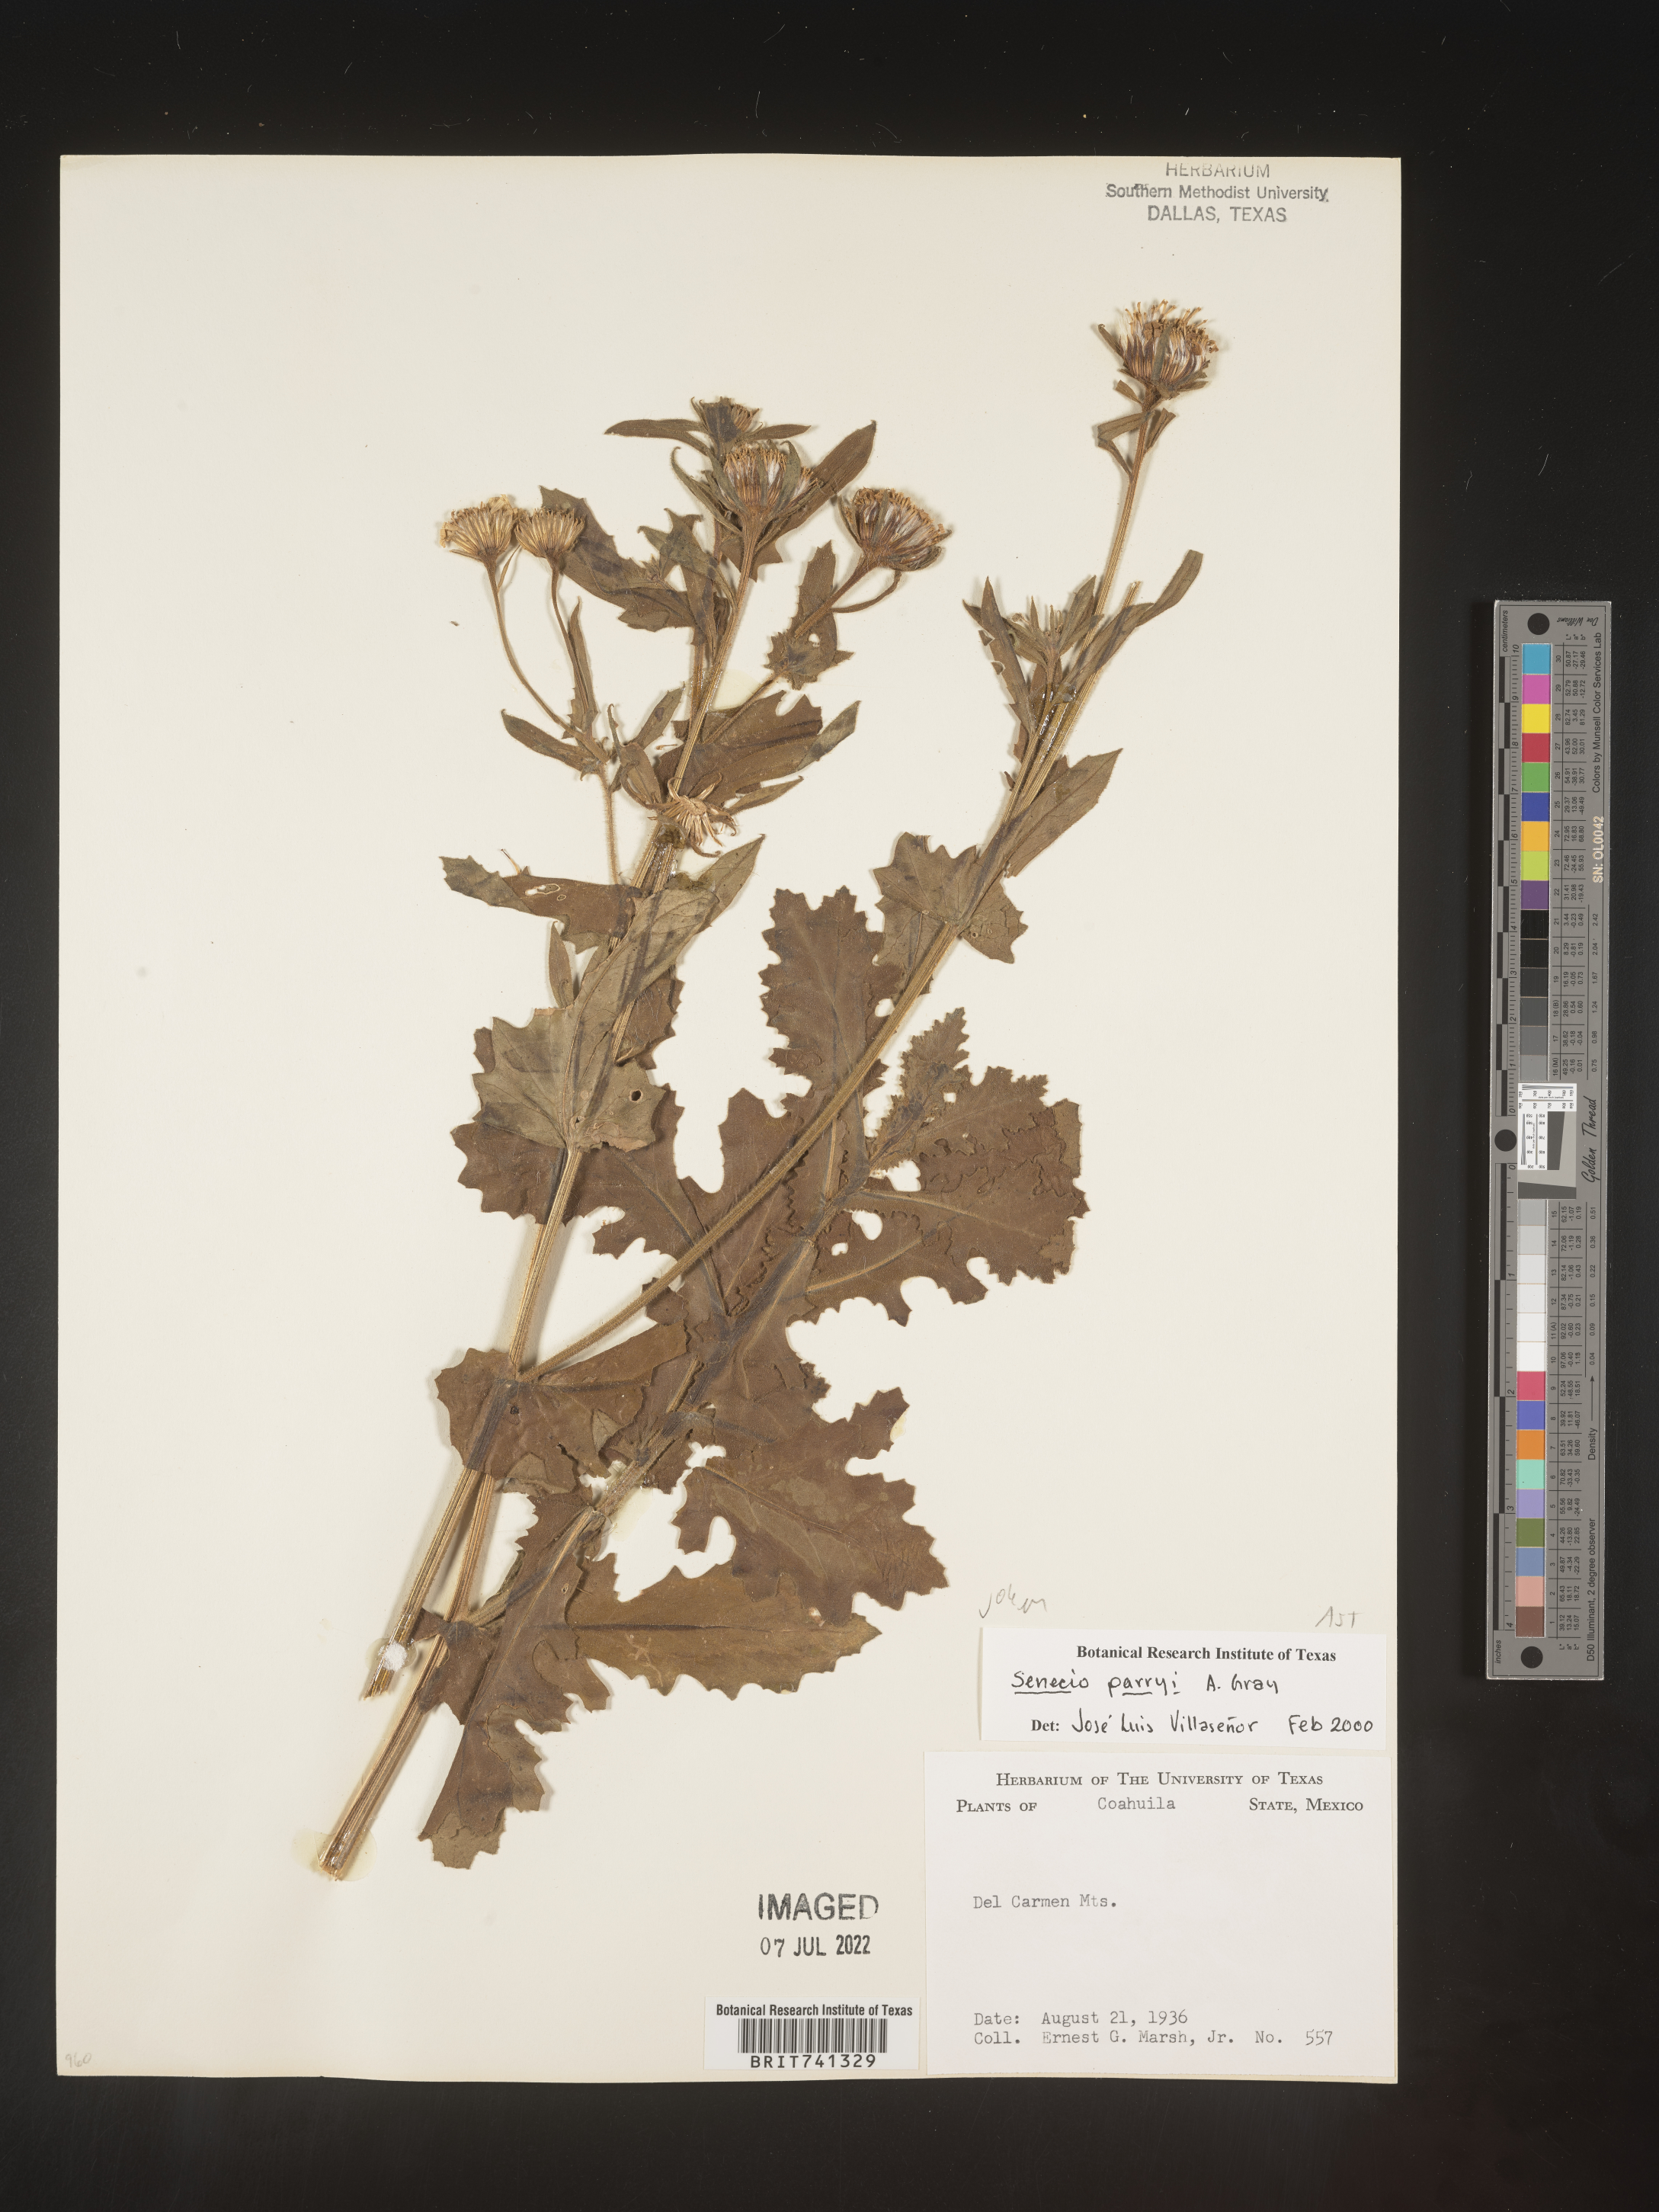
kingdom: Plantae
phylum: Tracheophyta
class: Magnoliopsida
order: Asterales
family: Asteraceae
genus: Senecio
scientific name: Senecio
